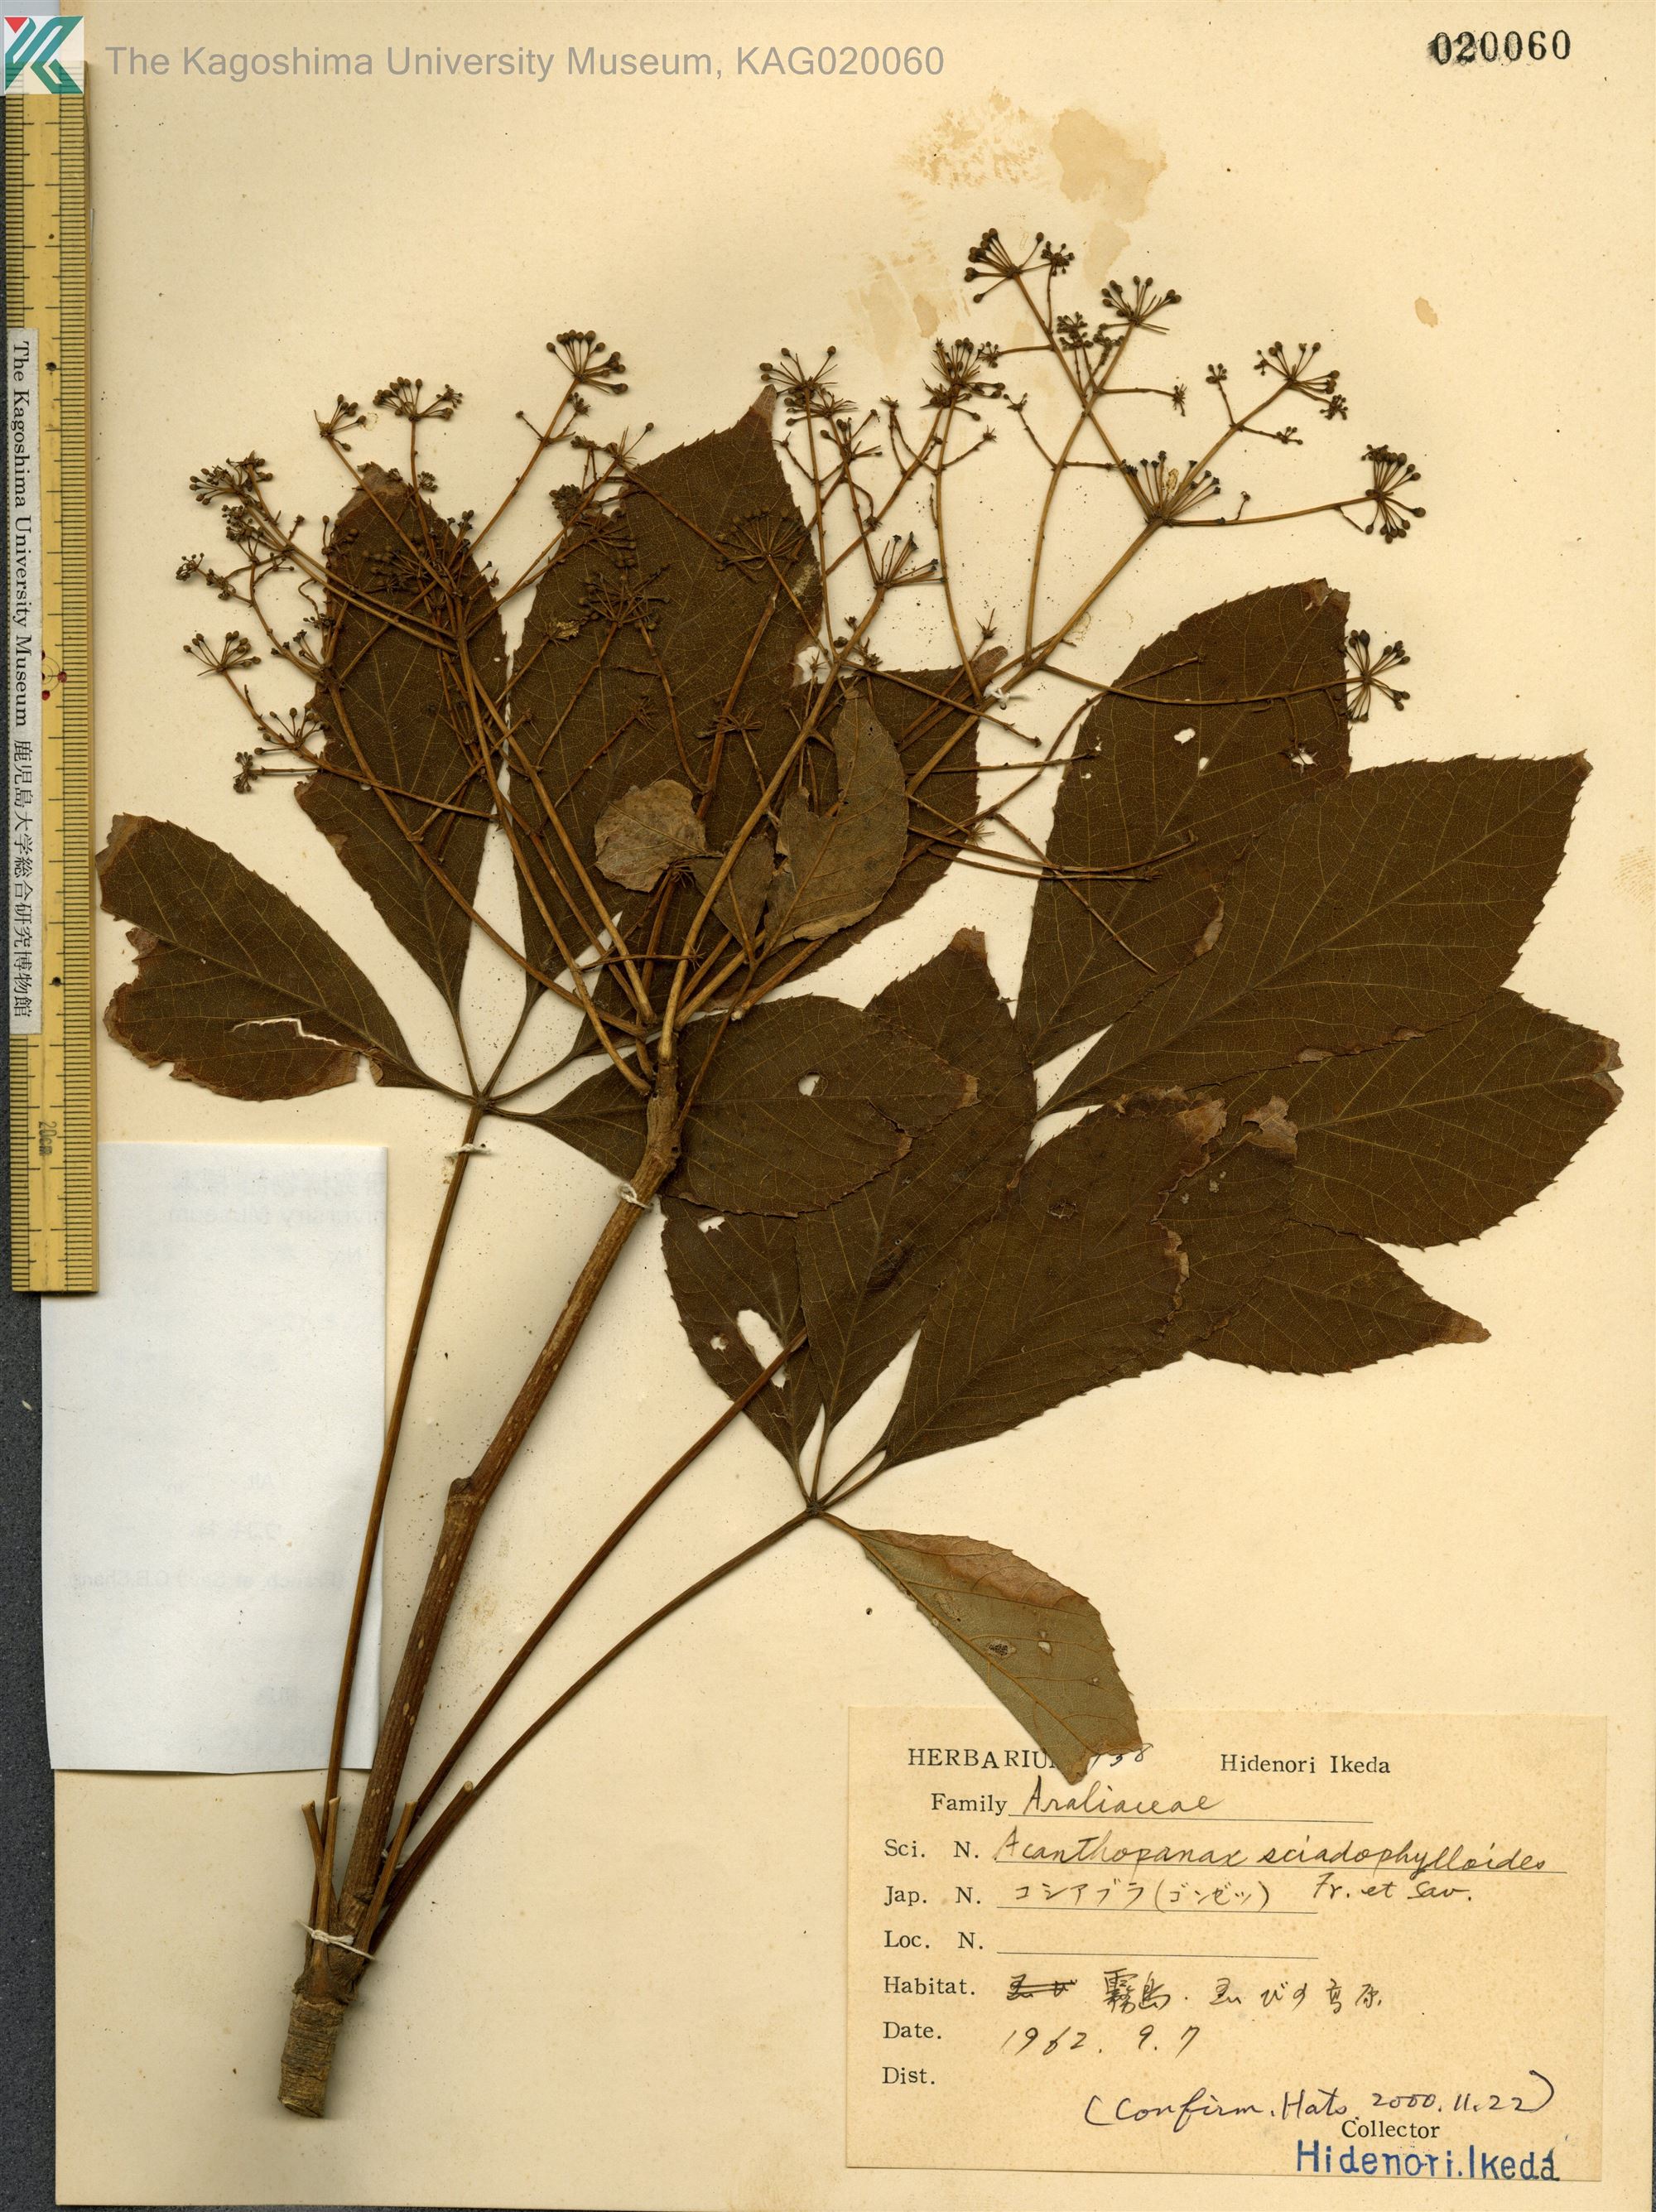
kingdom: Plantae
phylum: Tracheophyta
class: Magnoliopsida
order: Apiales
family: Araliaceae
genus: Chengiopanax
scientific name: Chengiopanax sciadophylloides
